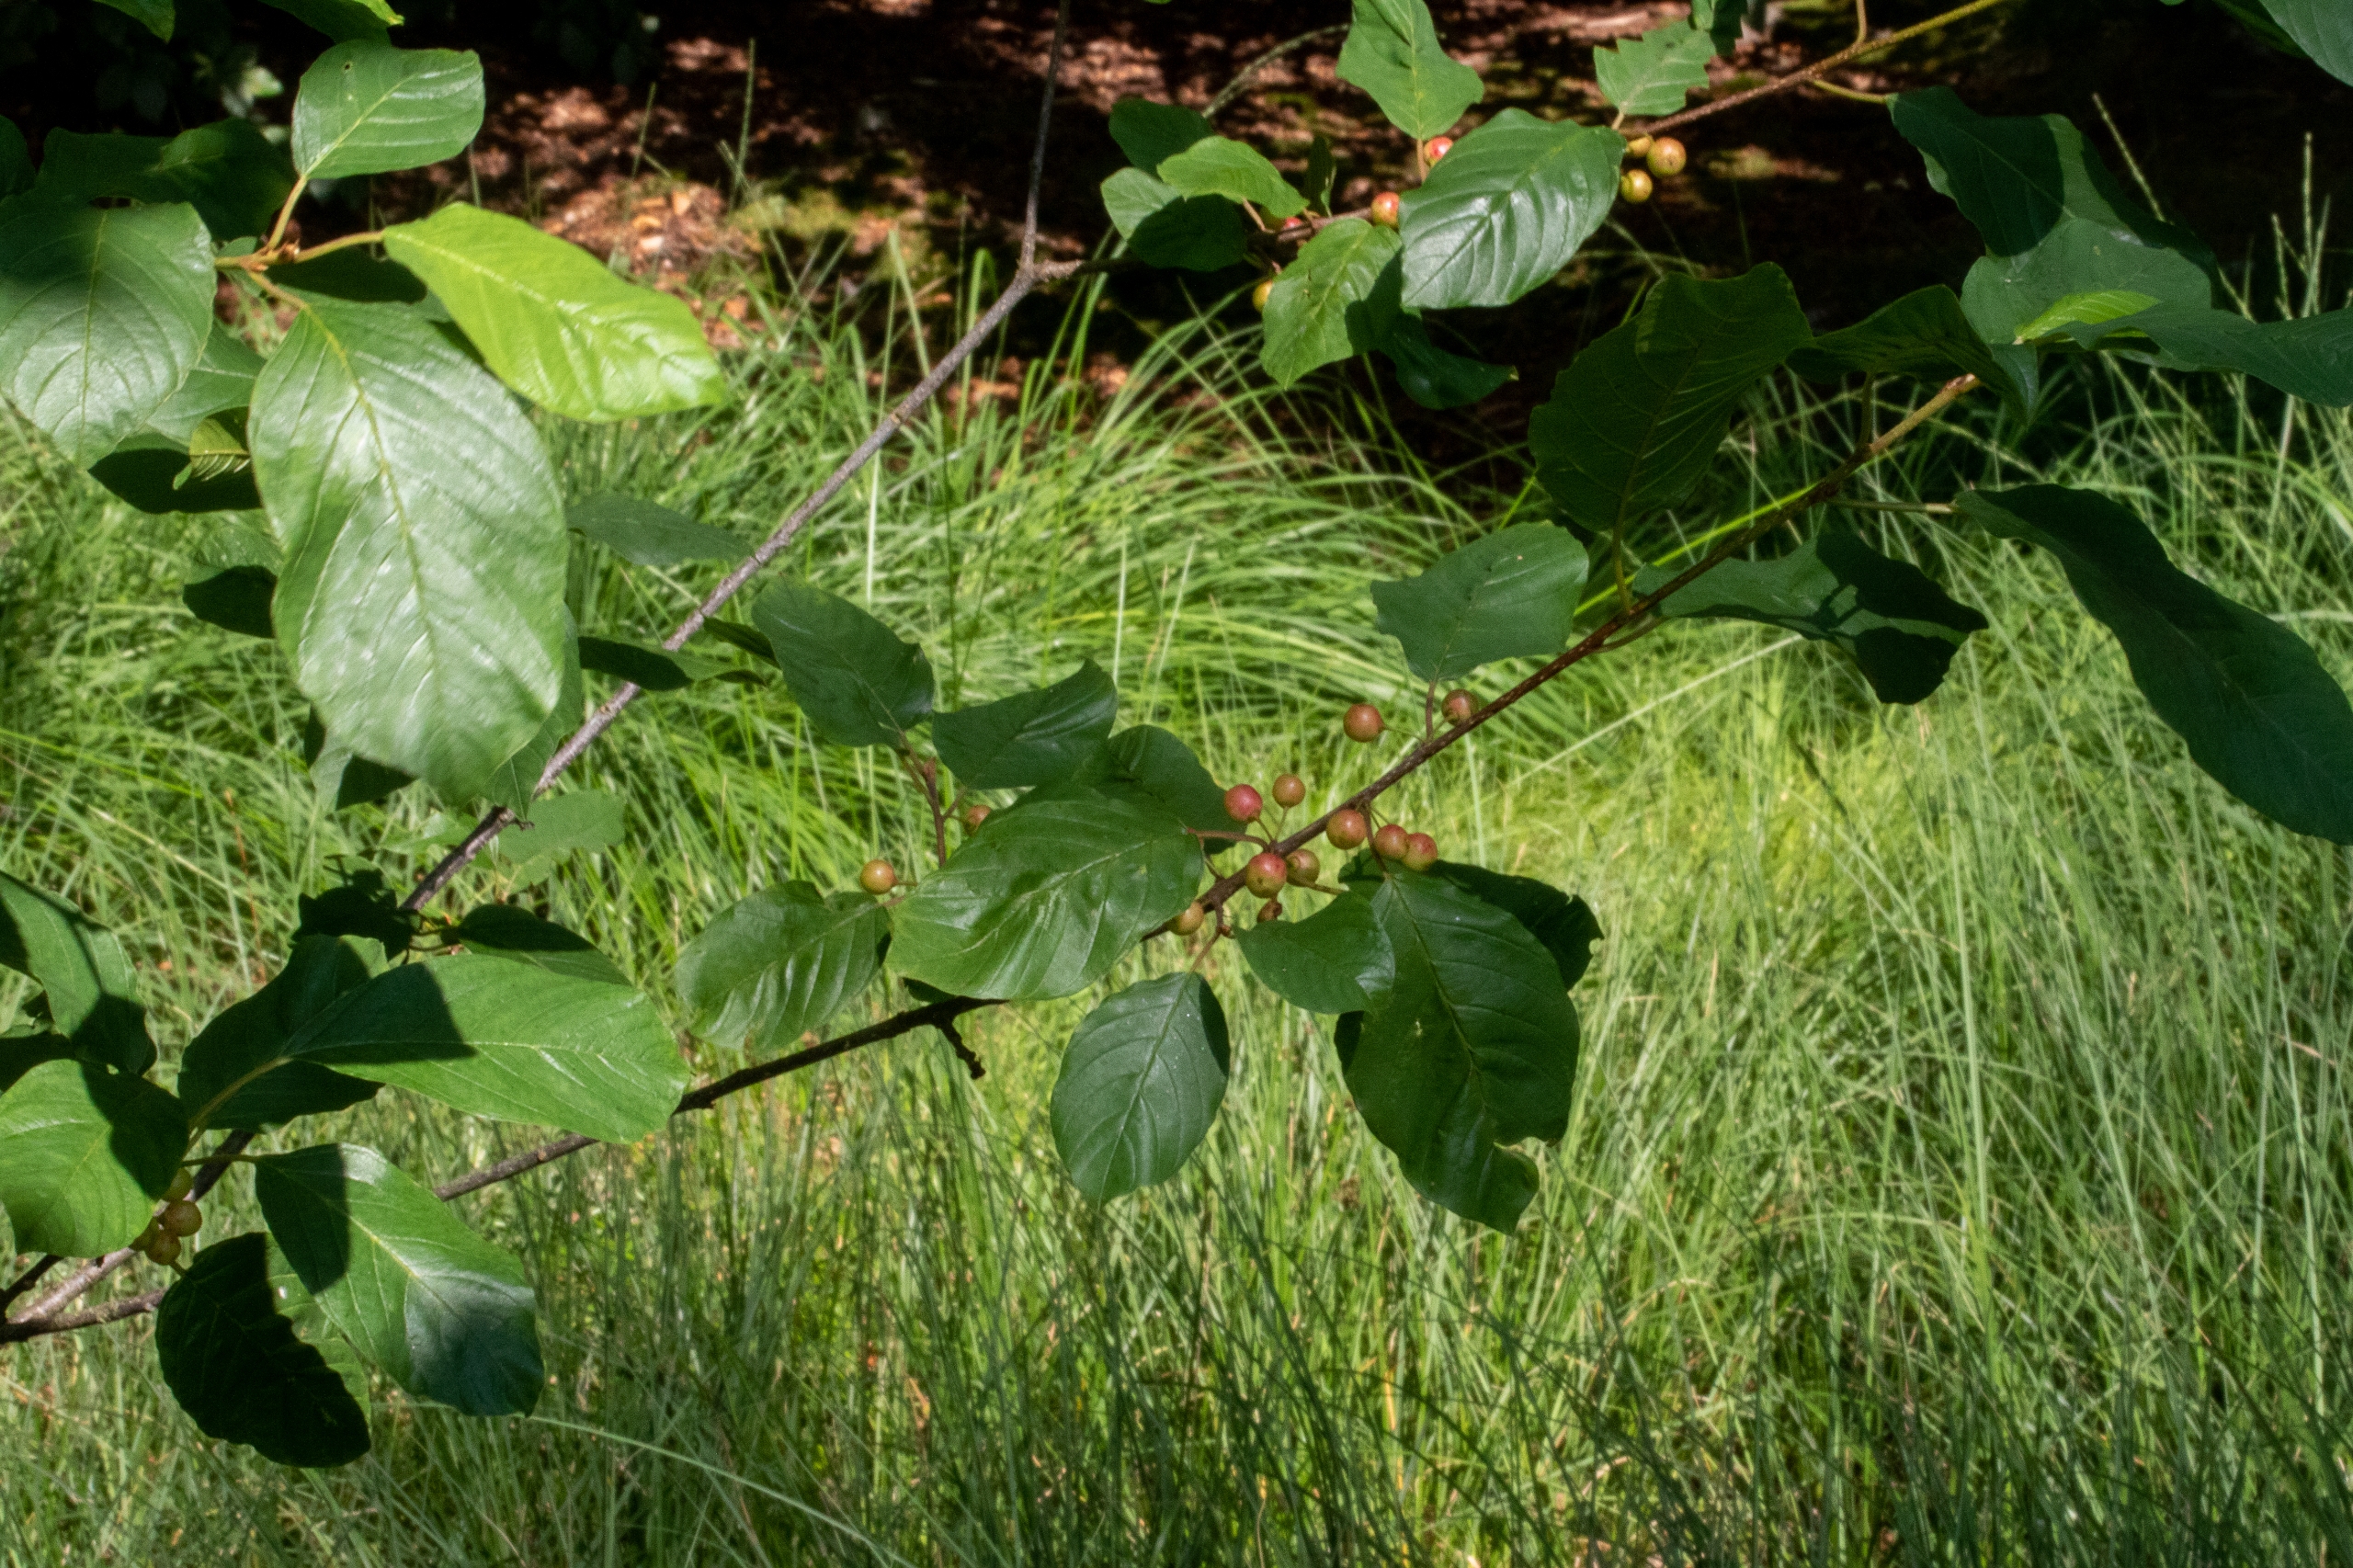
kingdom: Plantae
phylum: Tracheophyta
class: Magnoliopsida
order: Rosales
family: Rhamnaceae
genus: Frangula
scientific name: Frangula alnus
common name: Tørst
